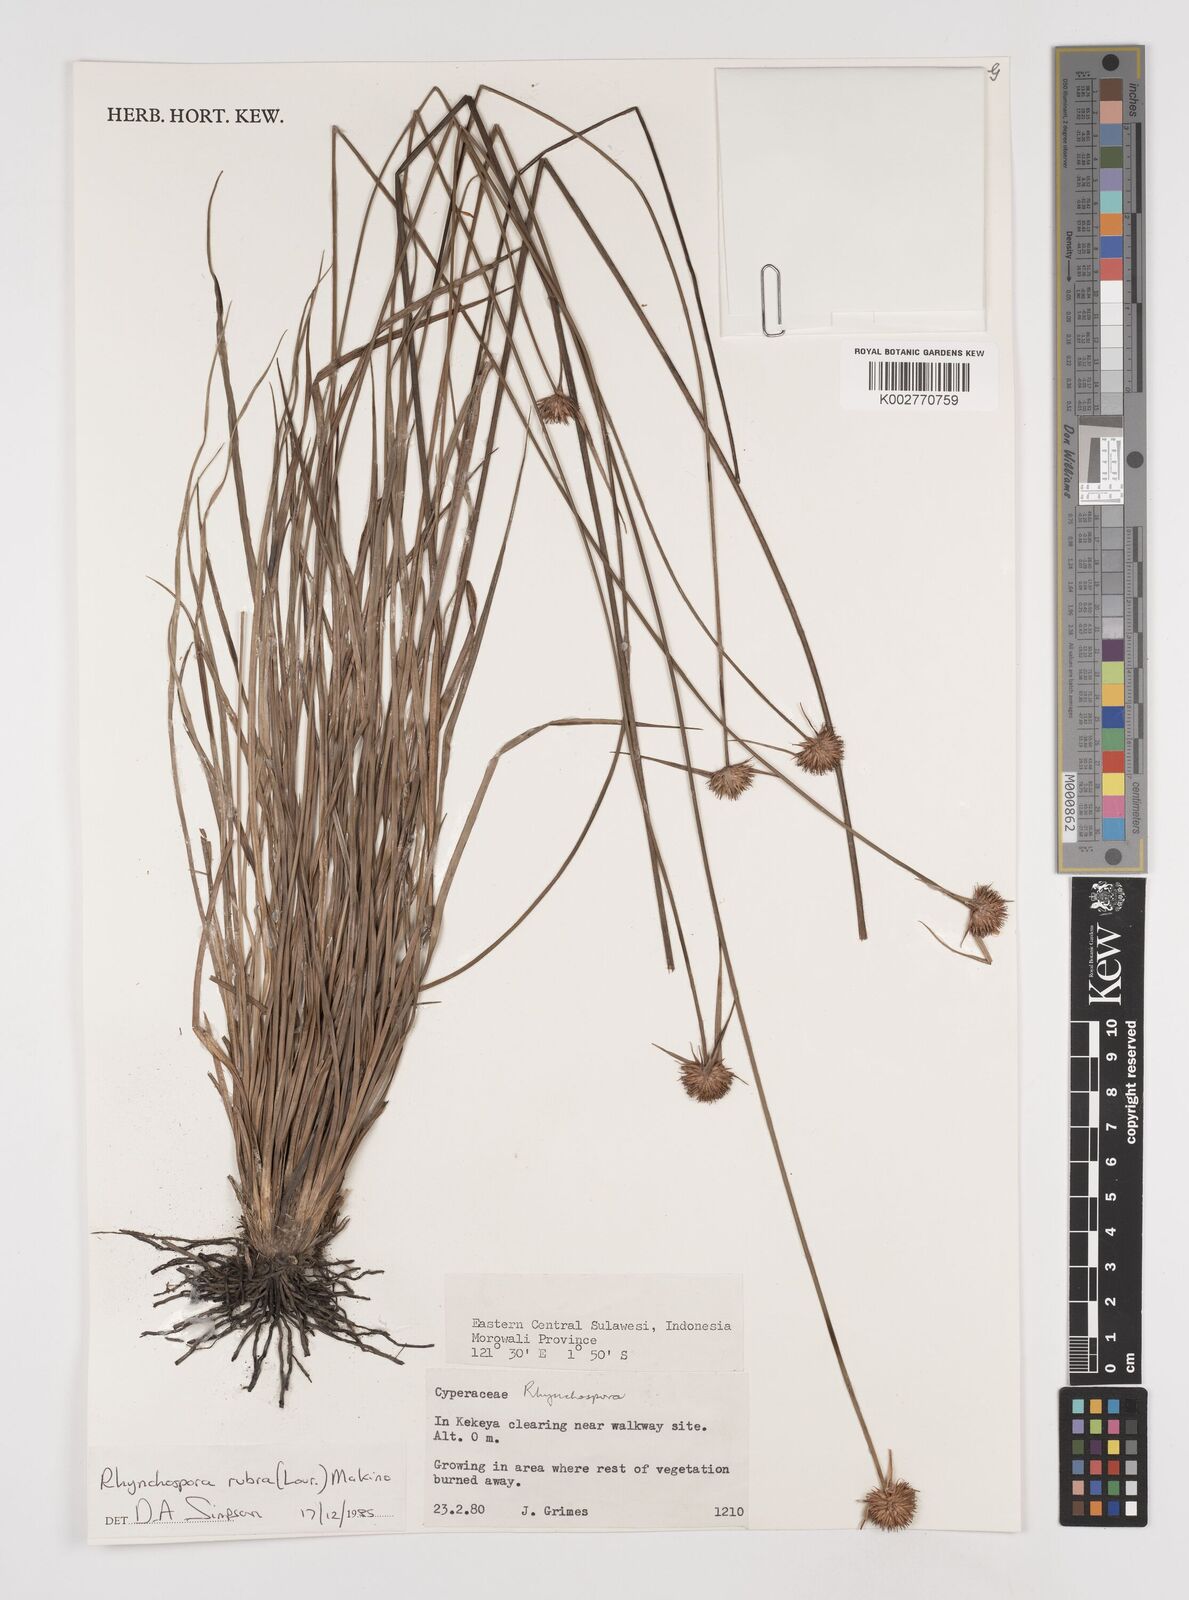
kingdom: Plantae
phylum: Tracheophyta
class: Liliopsida
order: Poales
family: Cyperaceae
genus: Rhynchospora
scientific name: Rhynchospora rubra
